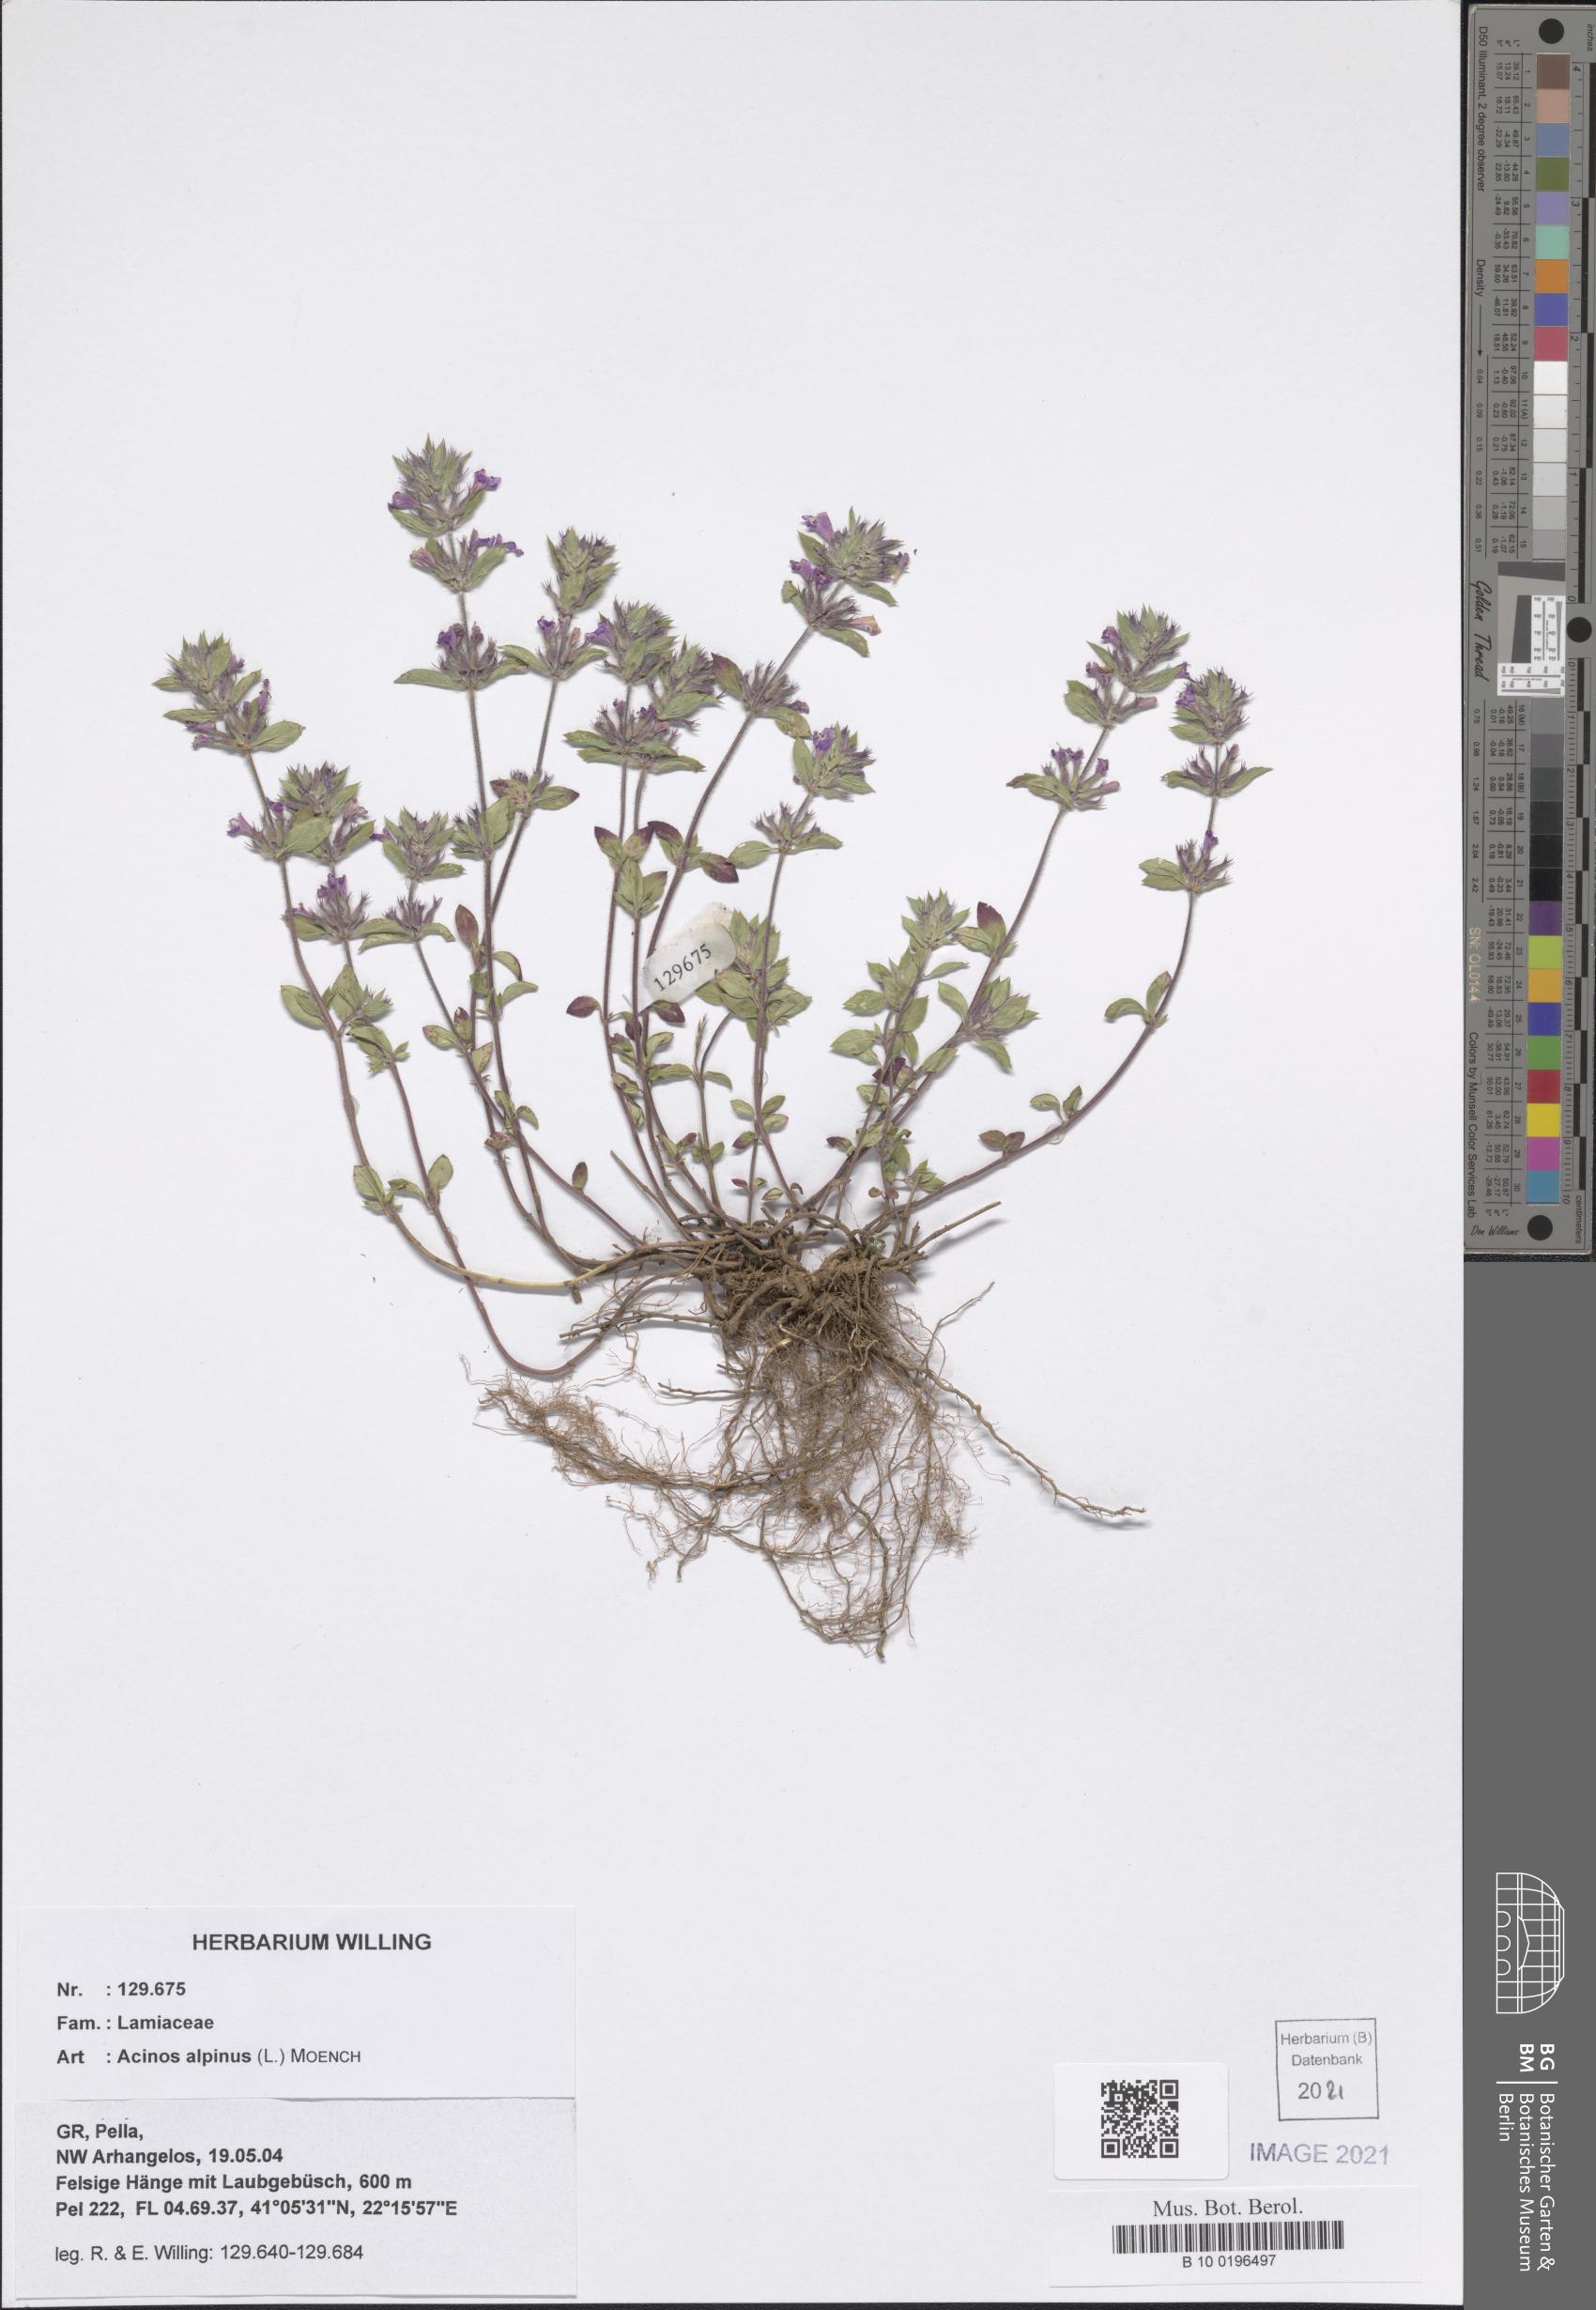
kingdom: Plantae
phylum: Tracheophyta
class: Magnoliopsida
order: Lamiales
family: Lamiaceae
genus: Clinopodium
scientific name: Clinopodium alpinum
